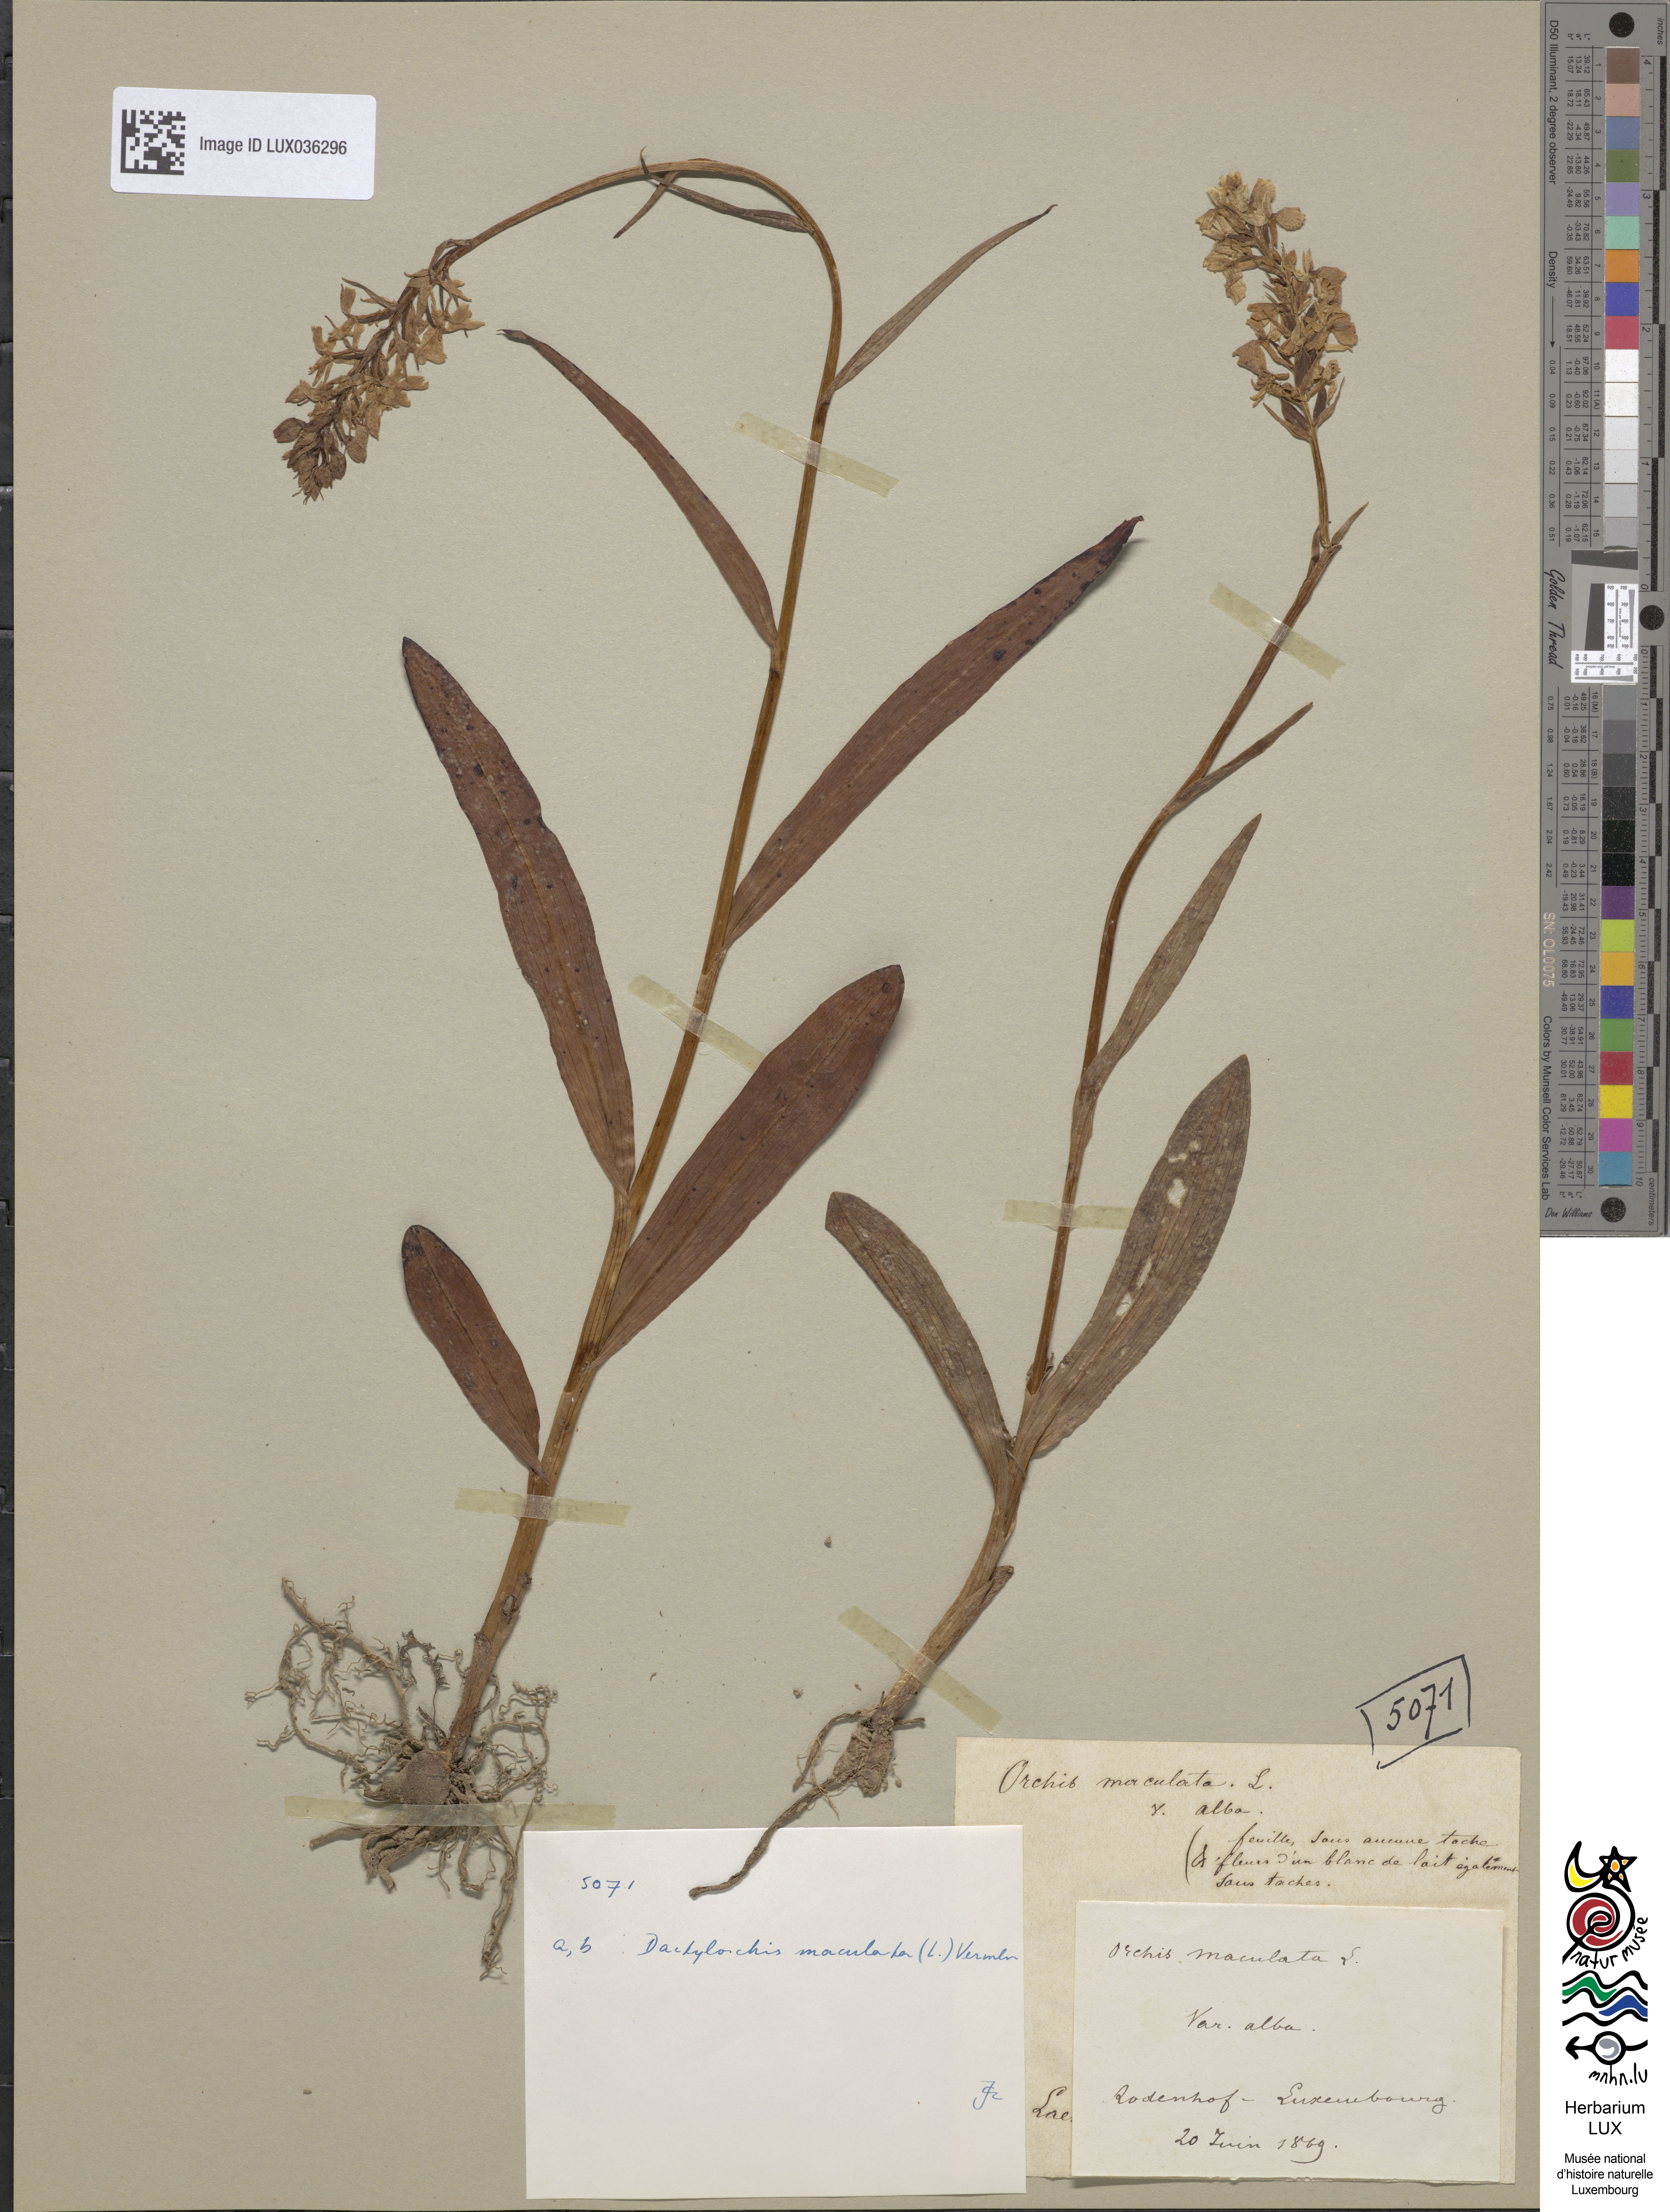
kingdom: Plantae
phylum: Tracheophyta
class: Liliopsida
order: Asparagales
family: Orchidaceae
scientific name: Orchidaceae
